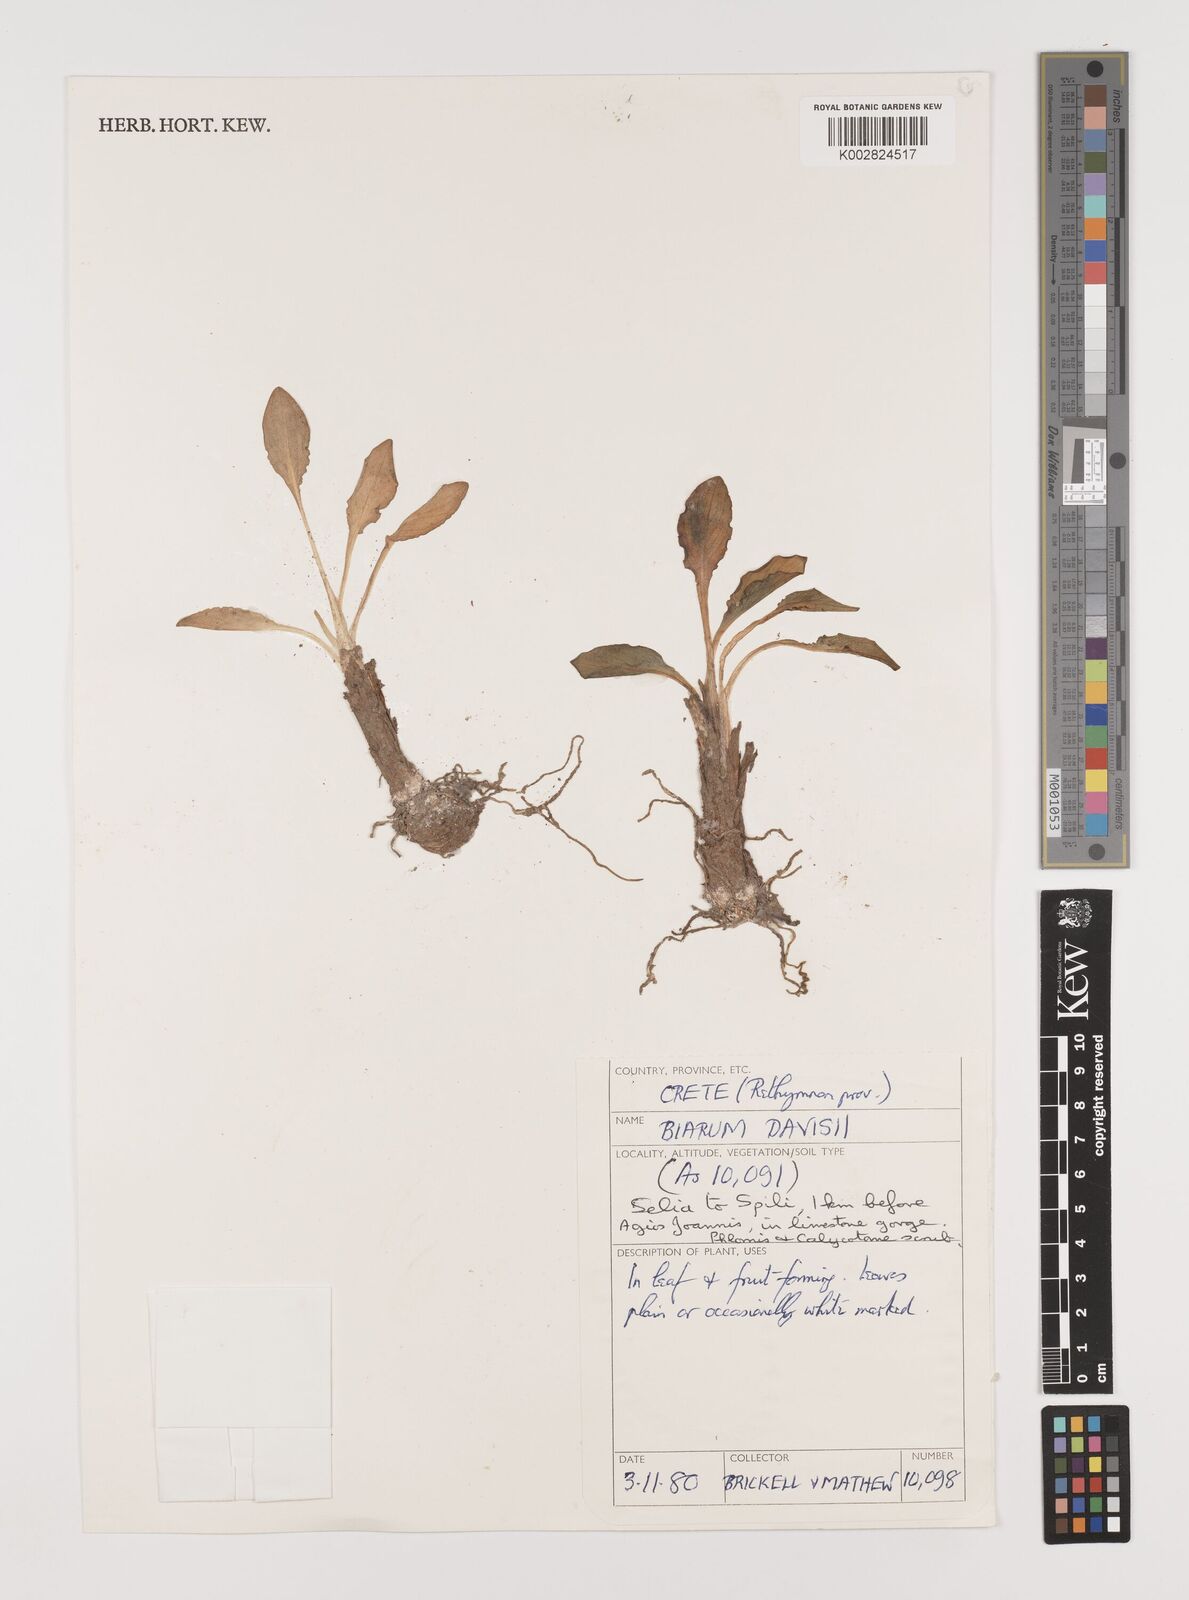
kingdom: Plantae
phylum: Tracheophyta
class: Liliopsida
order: Alismatales
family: Araceae
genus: Biarum
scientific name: Biarum davisii
